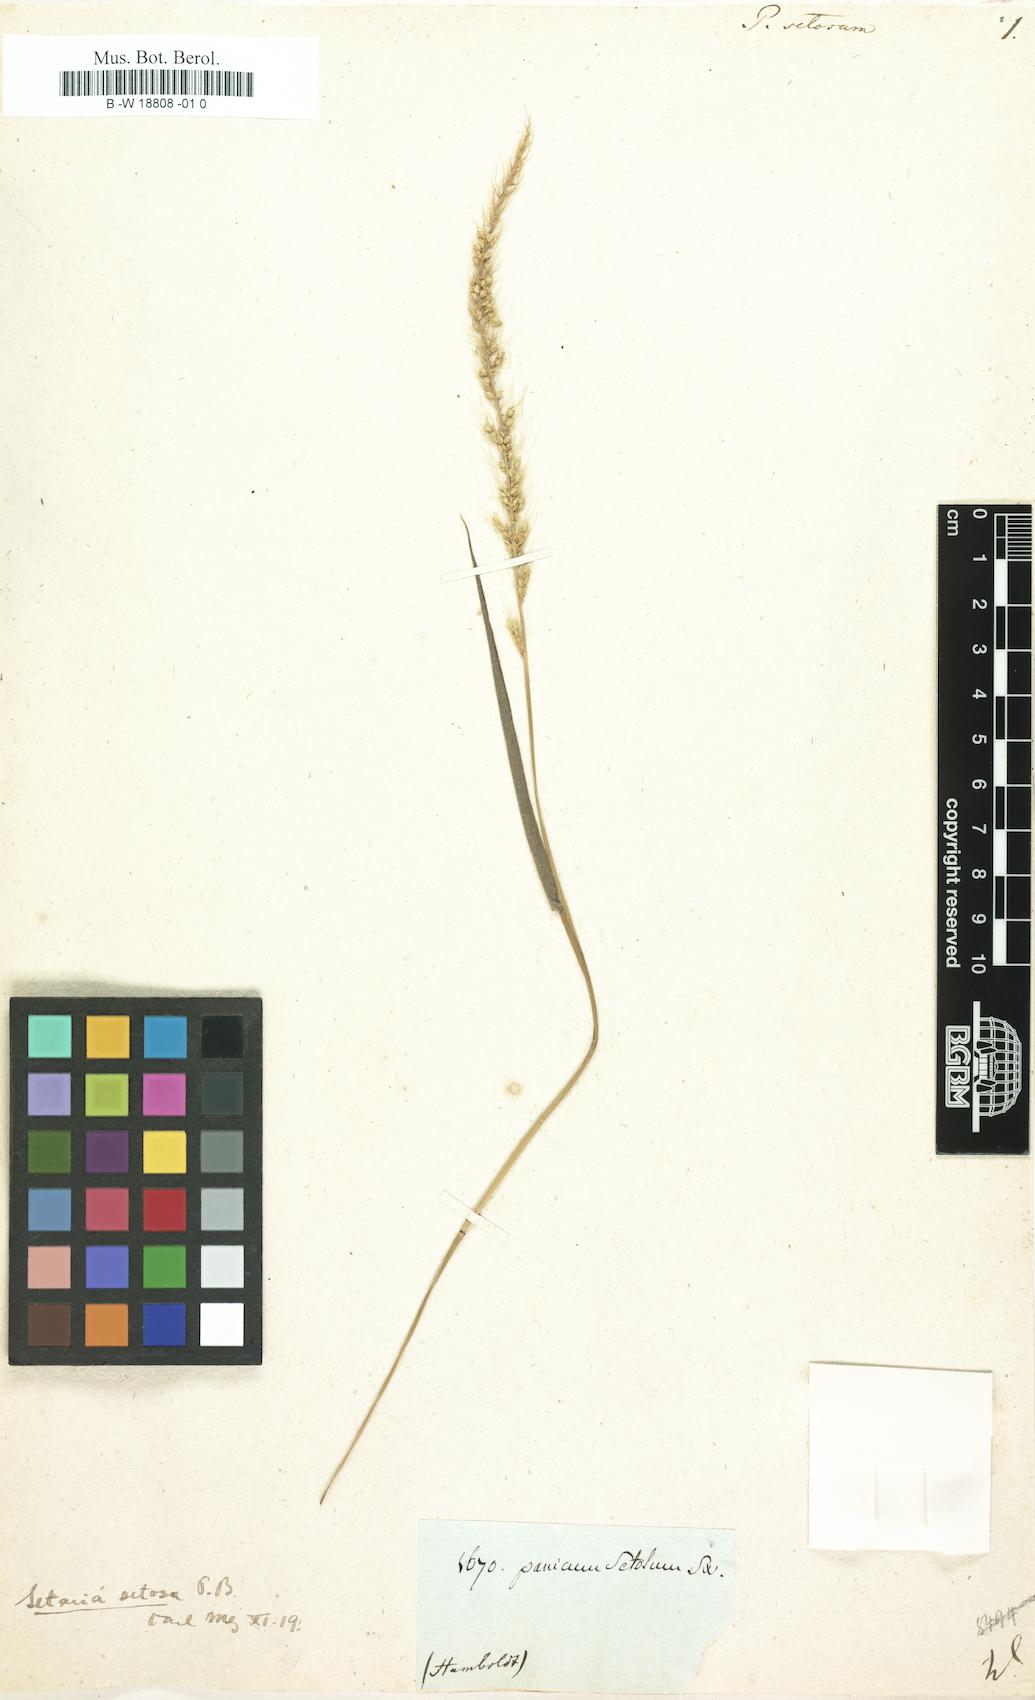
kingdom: Plantae
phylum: Tracheophyta
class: Liliopsida
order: Poales
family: Poaceae
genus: Setaria
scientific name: Setaria setosa
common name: West indies bristle grass
